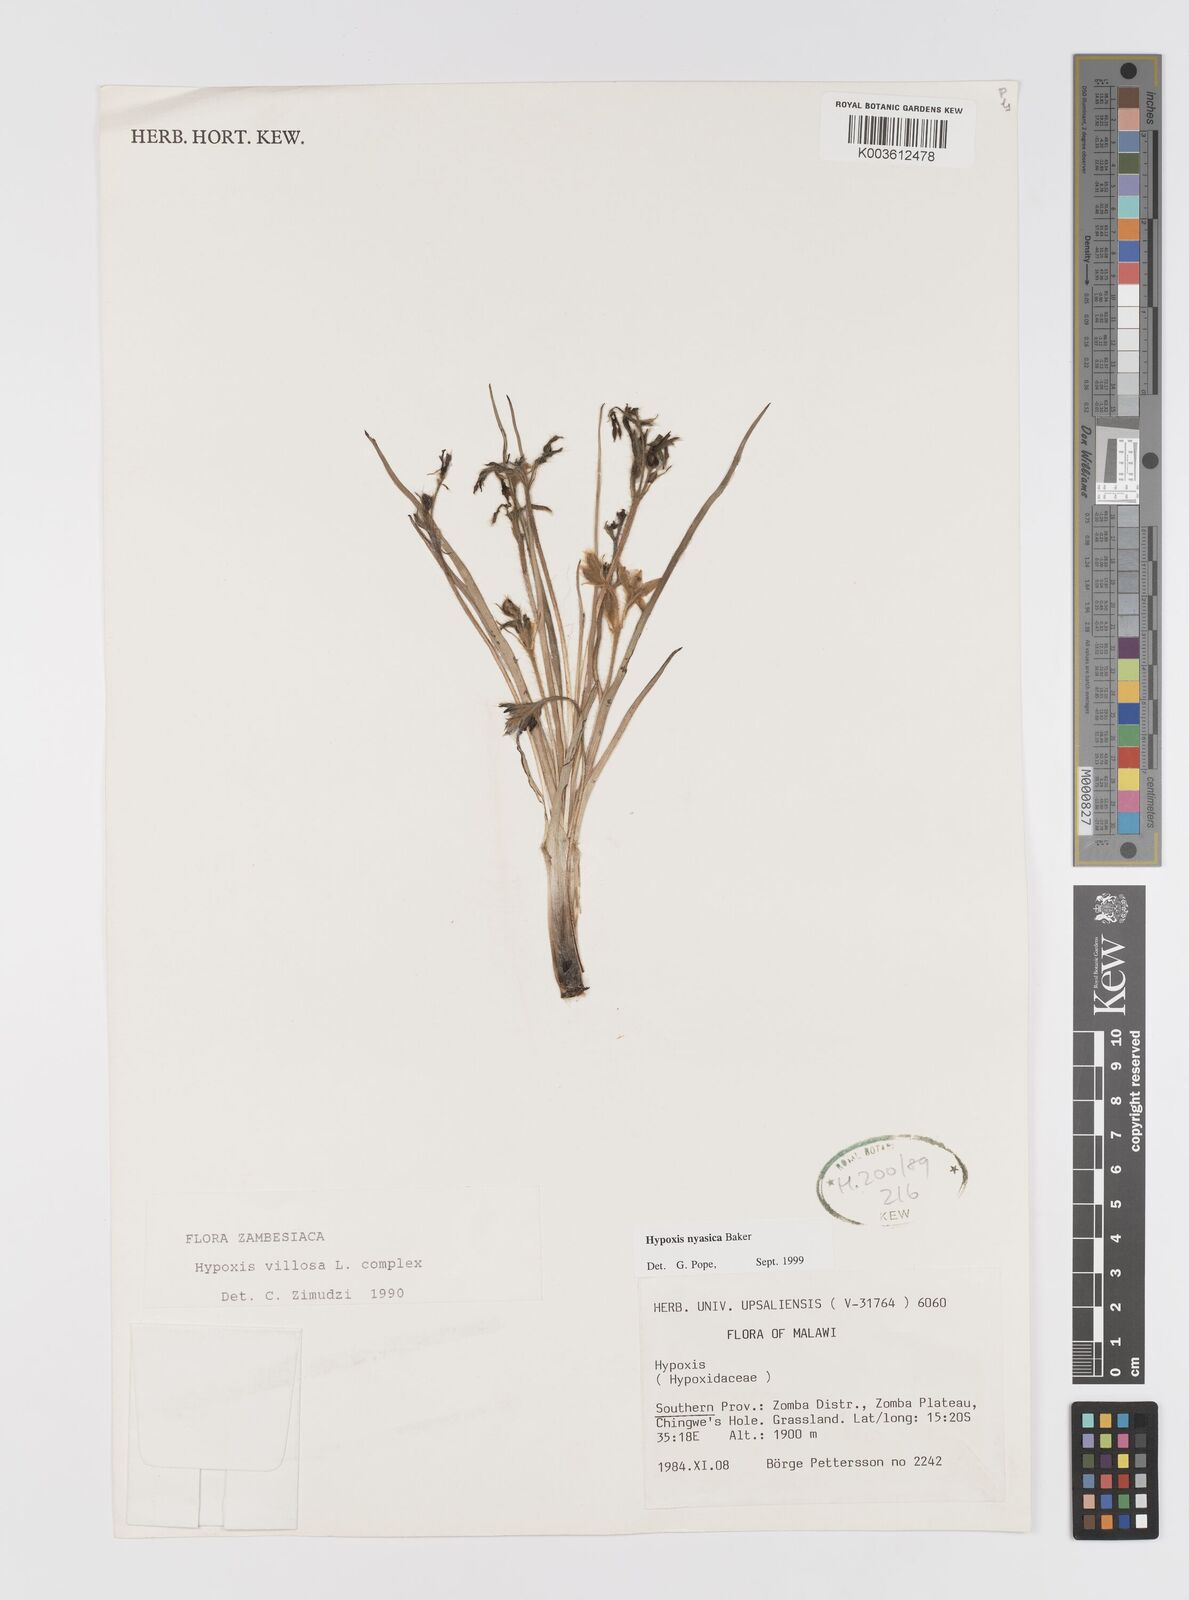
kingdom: Plantae
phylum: Tracheophyta
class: Liliopsida
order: Asparagales
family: Hypoxidaceae
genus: Hypoxis
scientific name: Hypoxis nyasica
